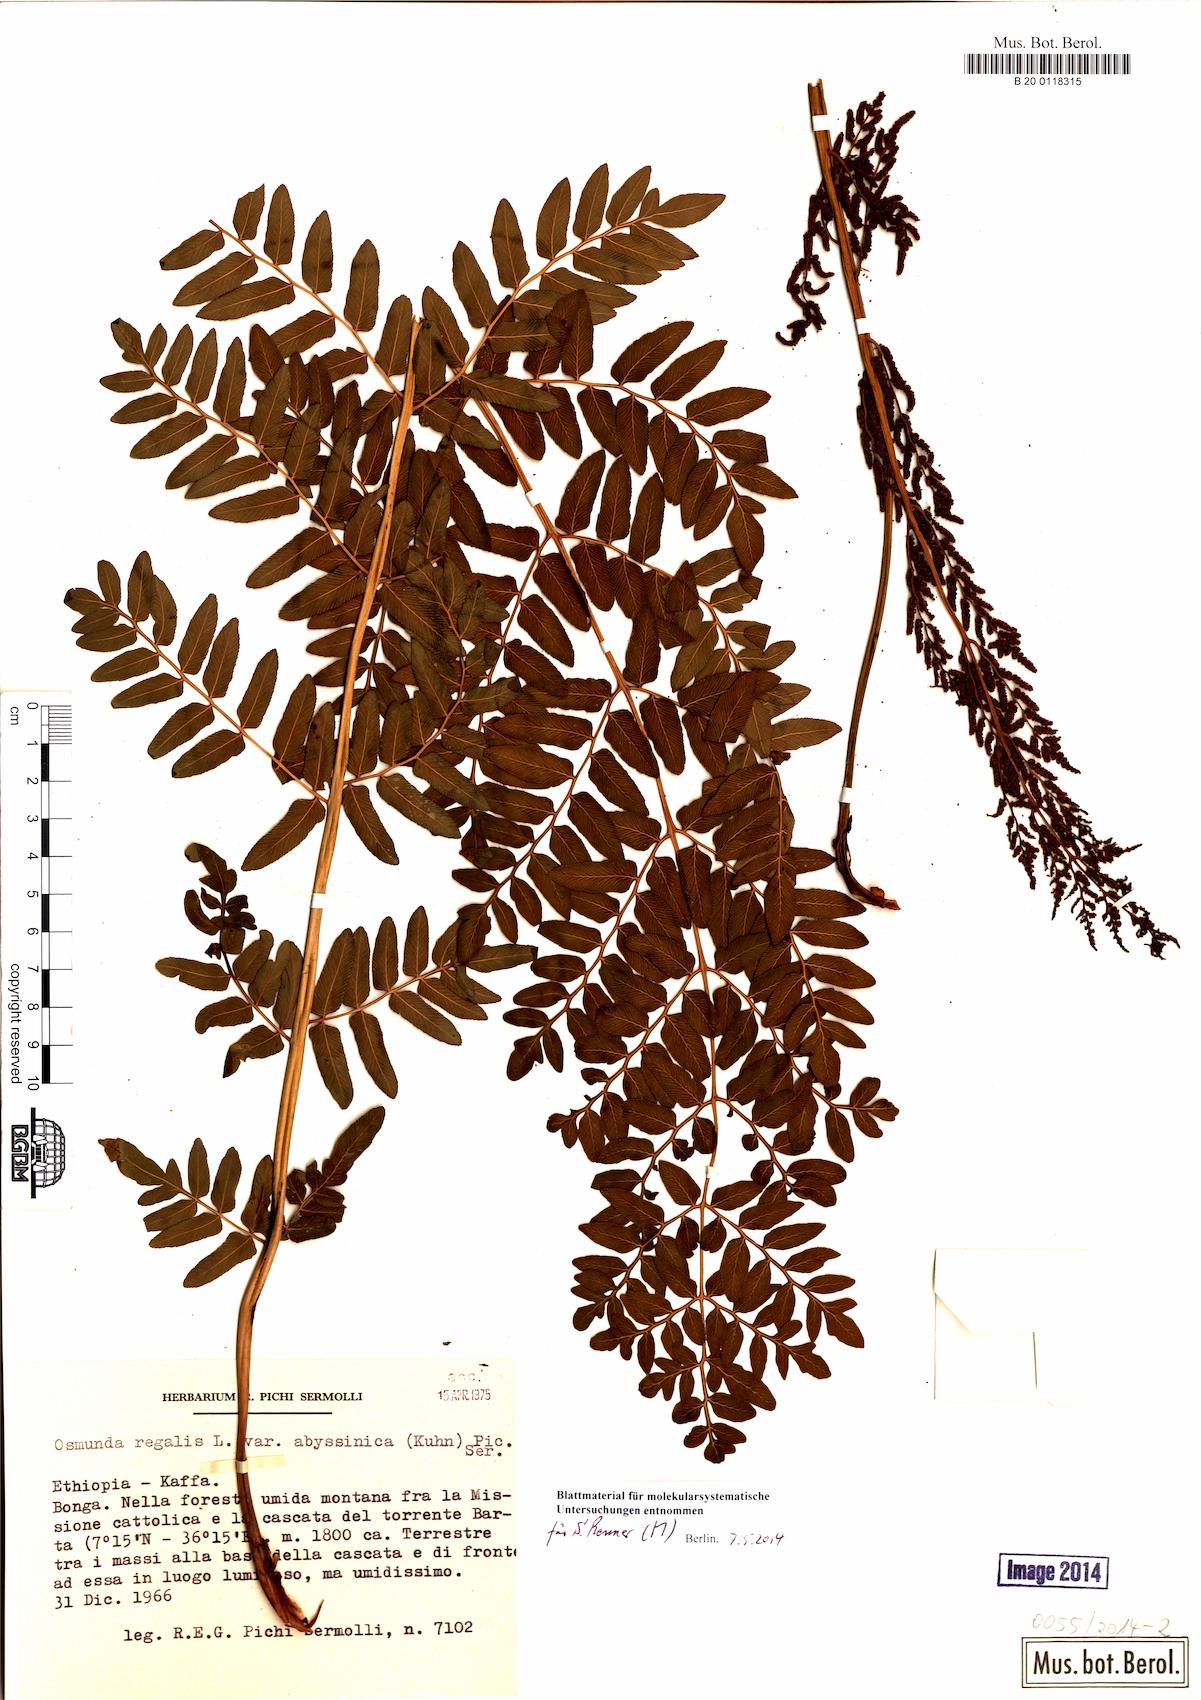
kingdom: Plantae
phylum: Tracheophyta
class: Polypodiopsida
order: Osmundales
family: Osmundaceae
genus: Osmunda
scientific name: Osmunda abyssinica
